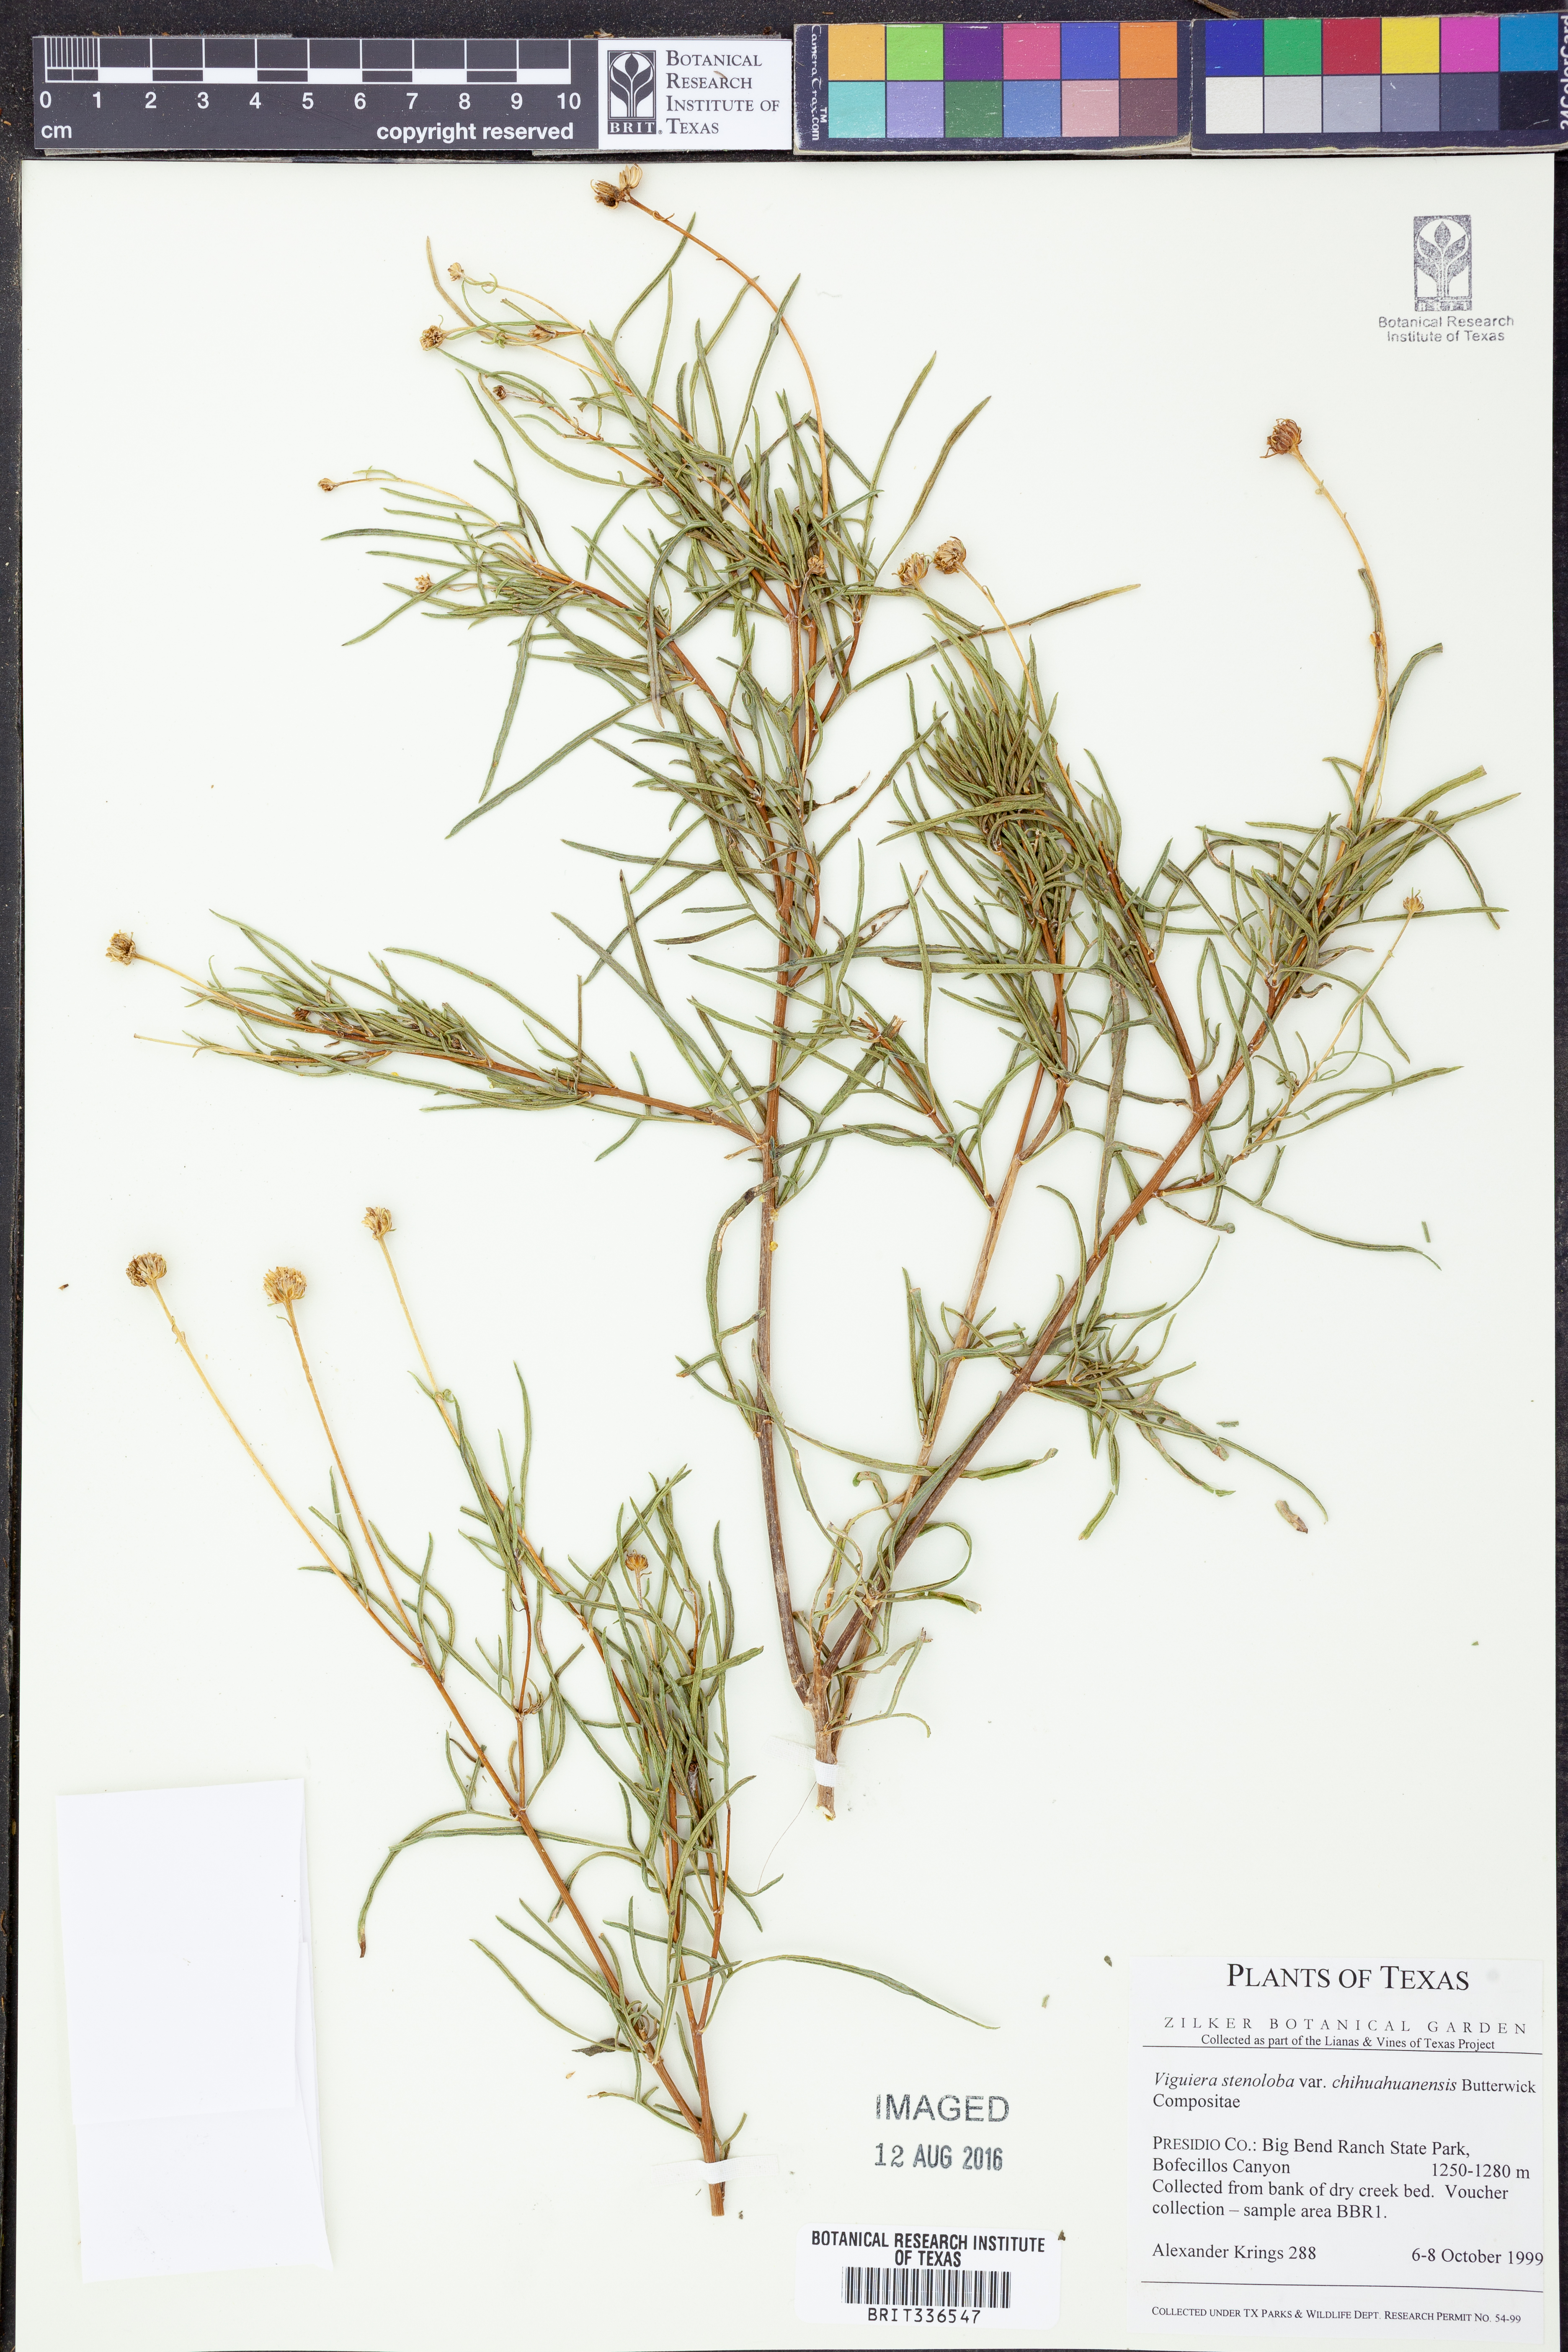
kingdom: Plantae
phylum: Tracheophyta
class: Magnoliopsida
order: Asterales
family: Asteraceae
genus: Sidneya
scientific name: Sidneya tenuifolia
